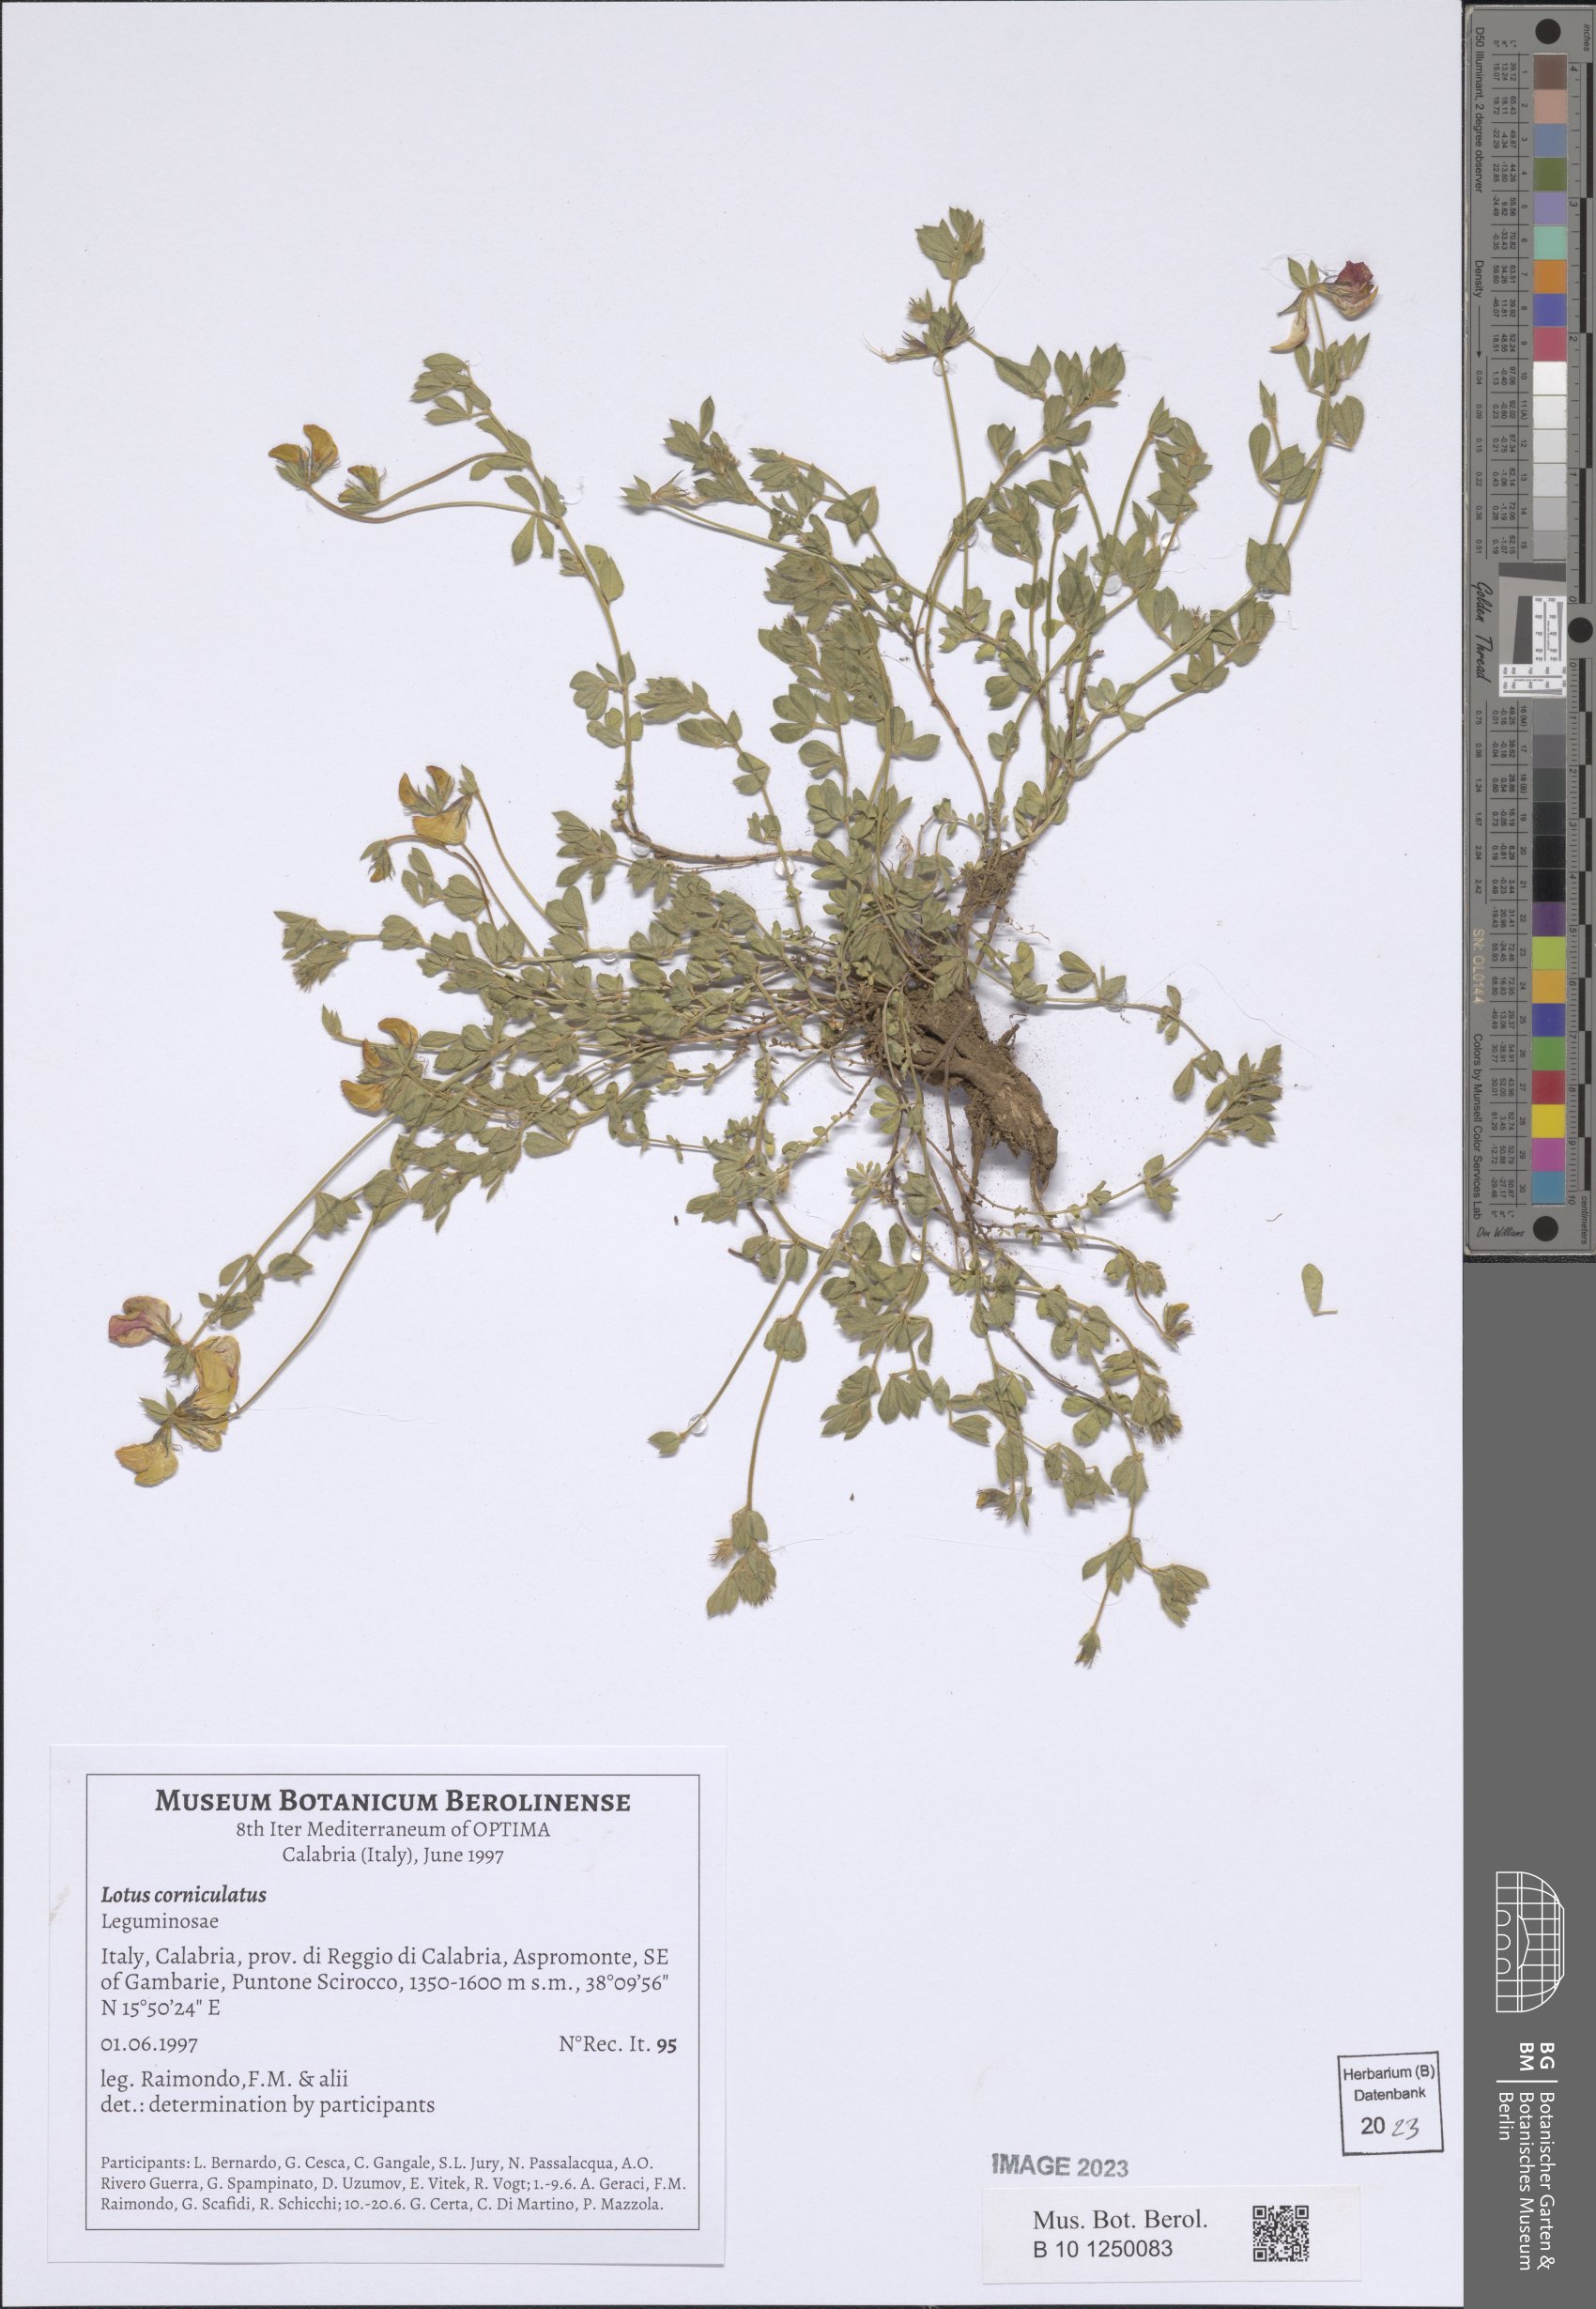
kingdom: Plantae
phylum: Tracheophyta
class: Magnoliopsida
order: Fabales
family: Fabaceae
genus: Lotus
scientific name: Lotus corniculatus
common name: Common bird's-foot-trefoil
